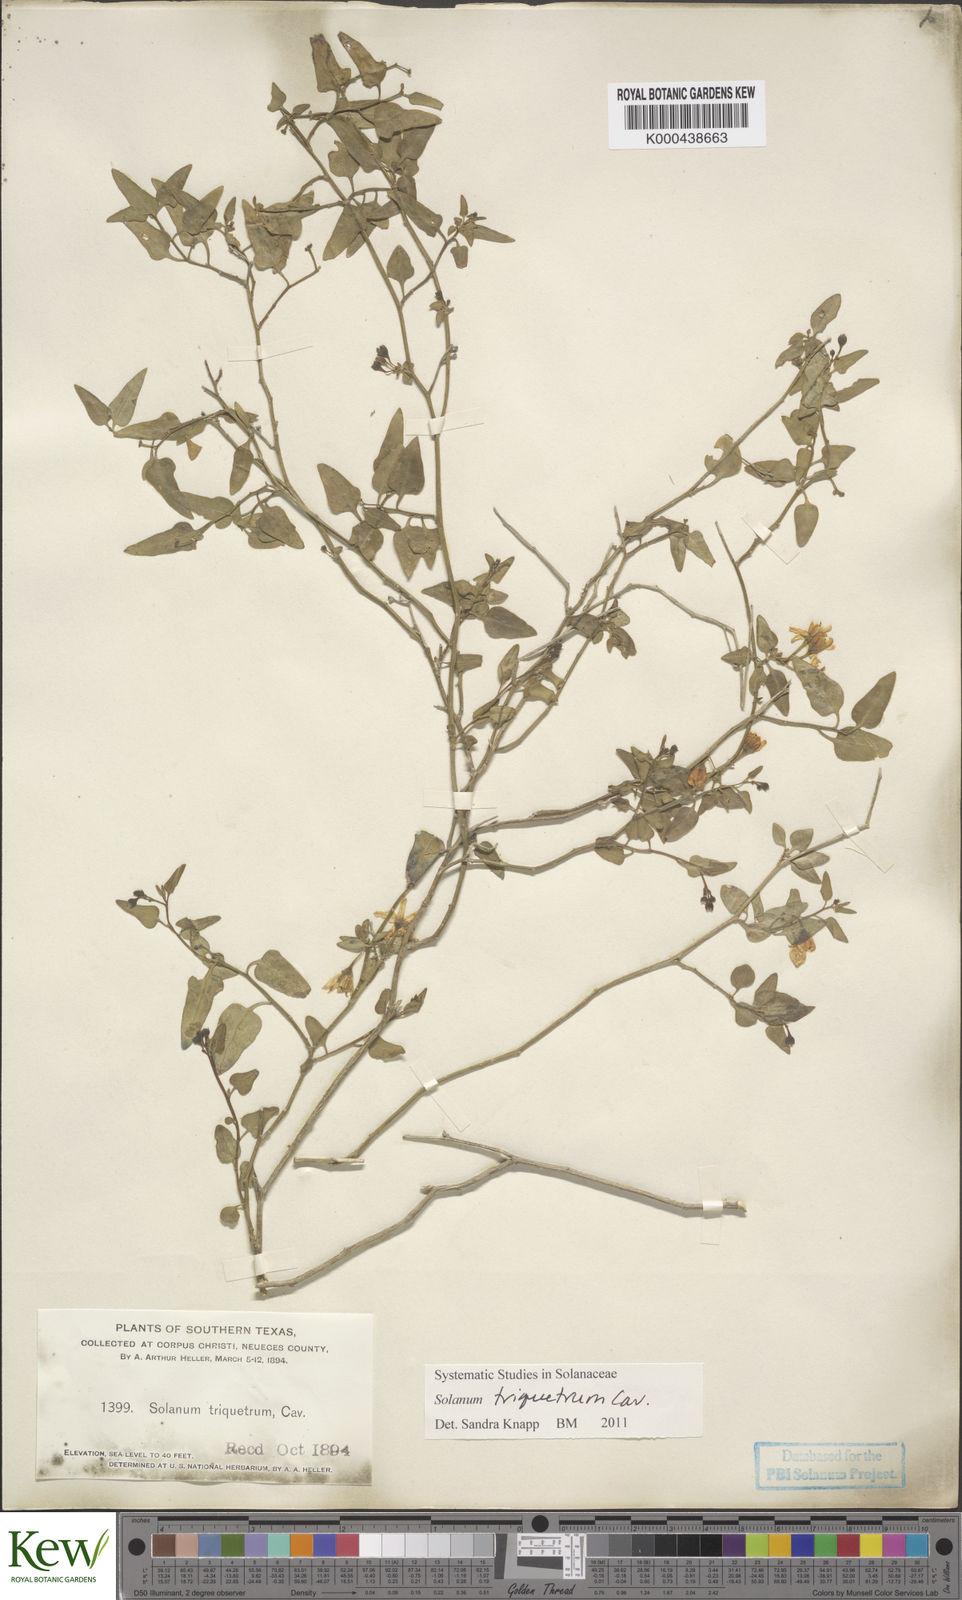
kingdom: Plantae
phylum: Tracheophyta
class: Magnoliopsida
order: Solanales
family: Solanaceae
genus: Solanum
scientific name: Solanum triquetrum
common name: Texas nightshade
